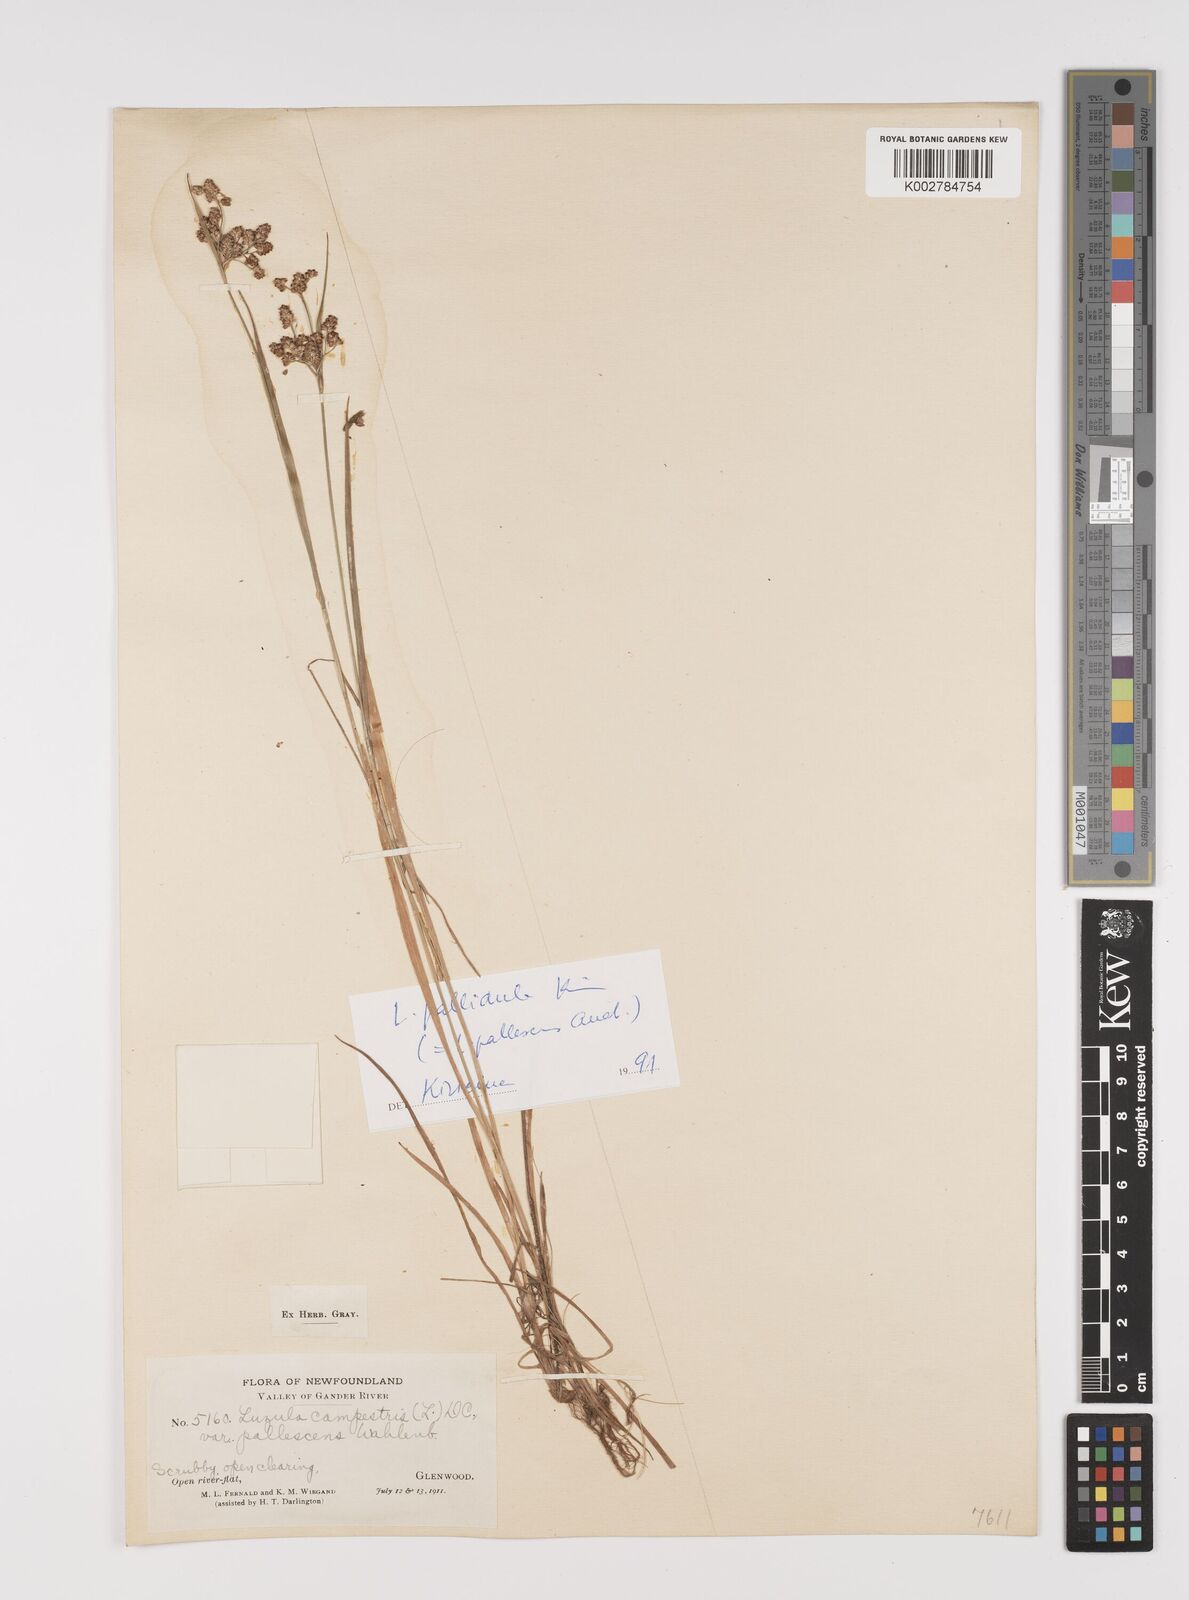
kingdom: Plantae
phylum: Tracheophyta
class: Liliopsida
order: Poales
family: Juncaceae
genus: Luzula
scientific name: Luzula pallescens
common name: Fen wood-rush
